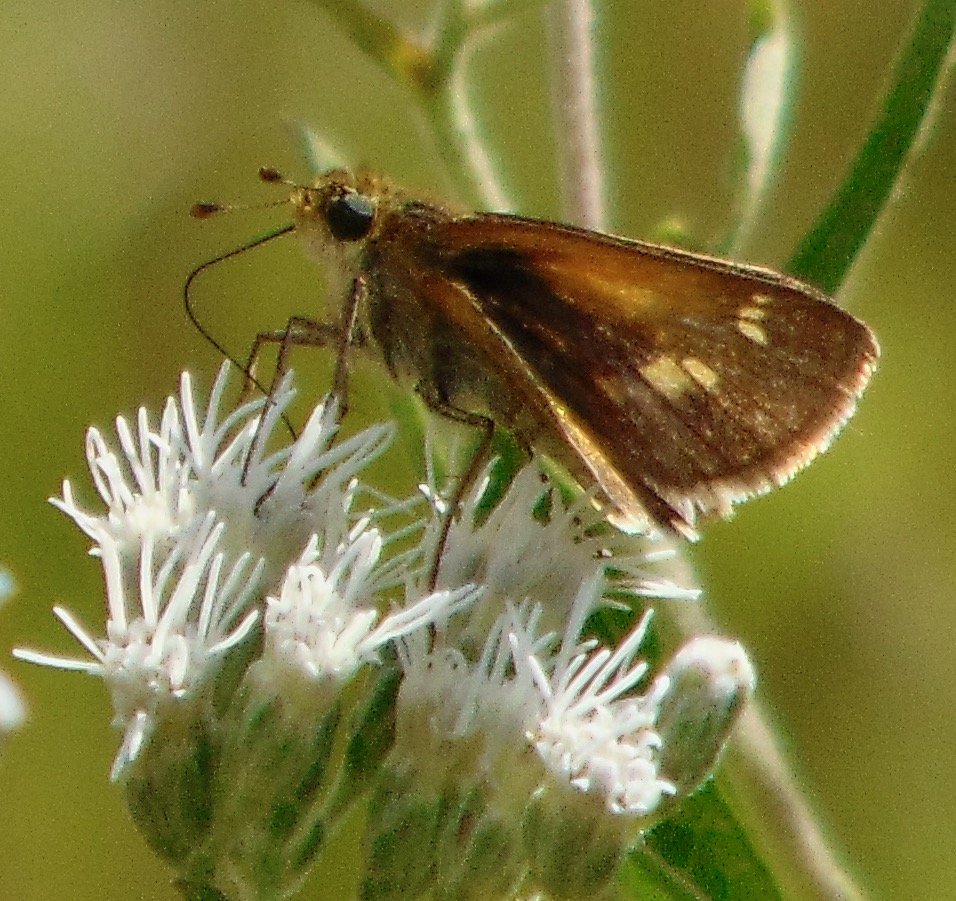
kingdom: Animalia
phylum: Arthropoda
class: Insecta
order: Lepidoptera
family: Hesperiidae
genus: Polites
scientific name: Polites themistocles
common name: Tawny-edged Skipper
